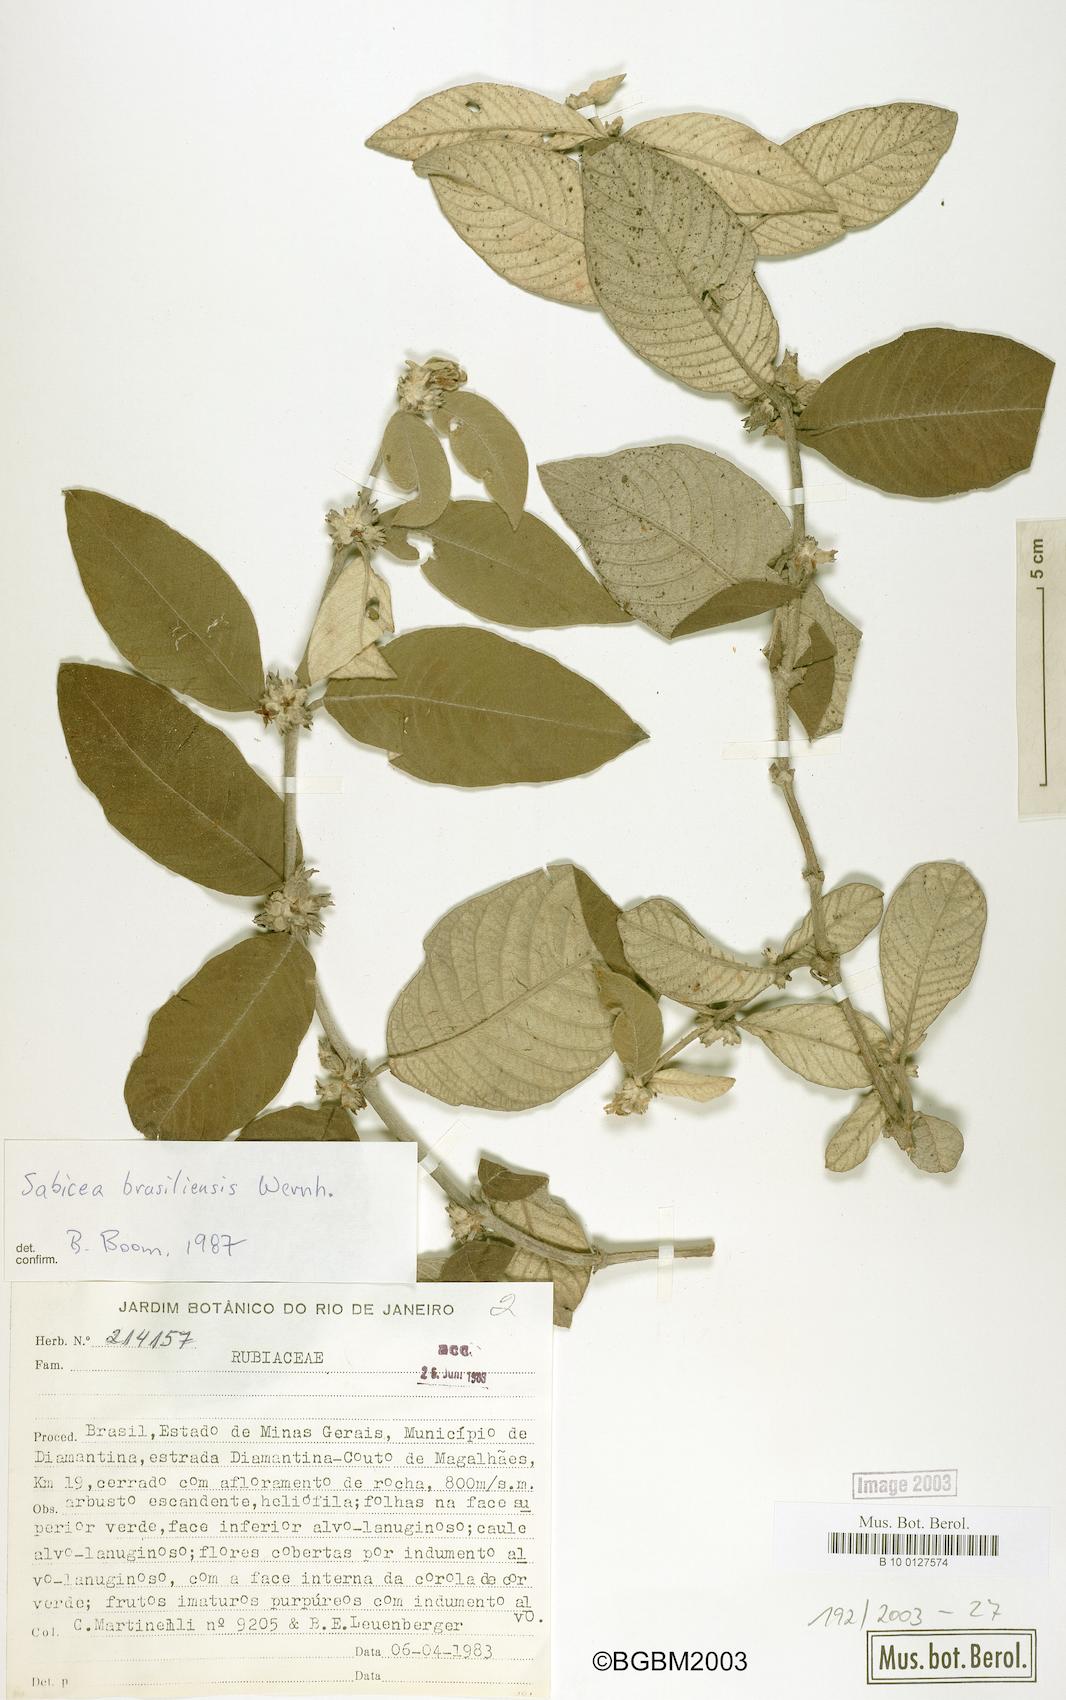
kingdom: Plantae
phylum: Tracheophyta
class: Magnoliopsida
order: Gentianales
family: Rubiaceae
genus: Sabicea
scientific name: Sabicea brasiliensis
